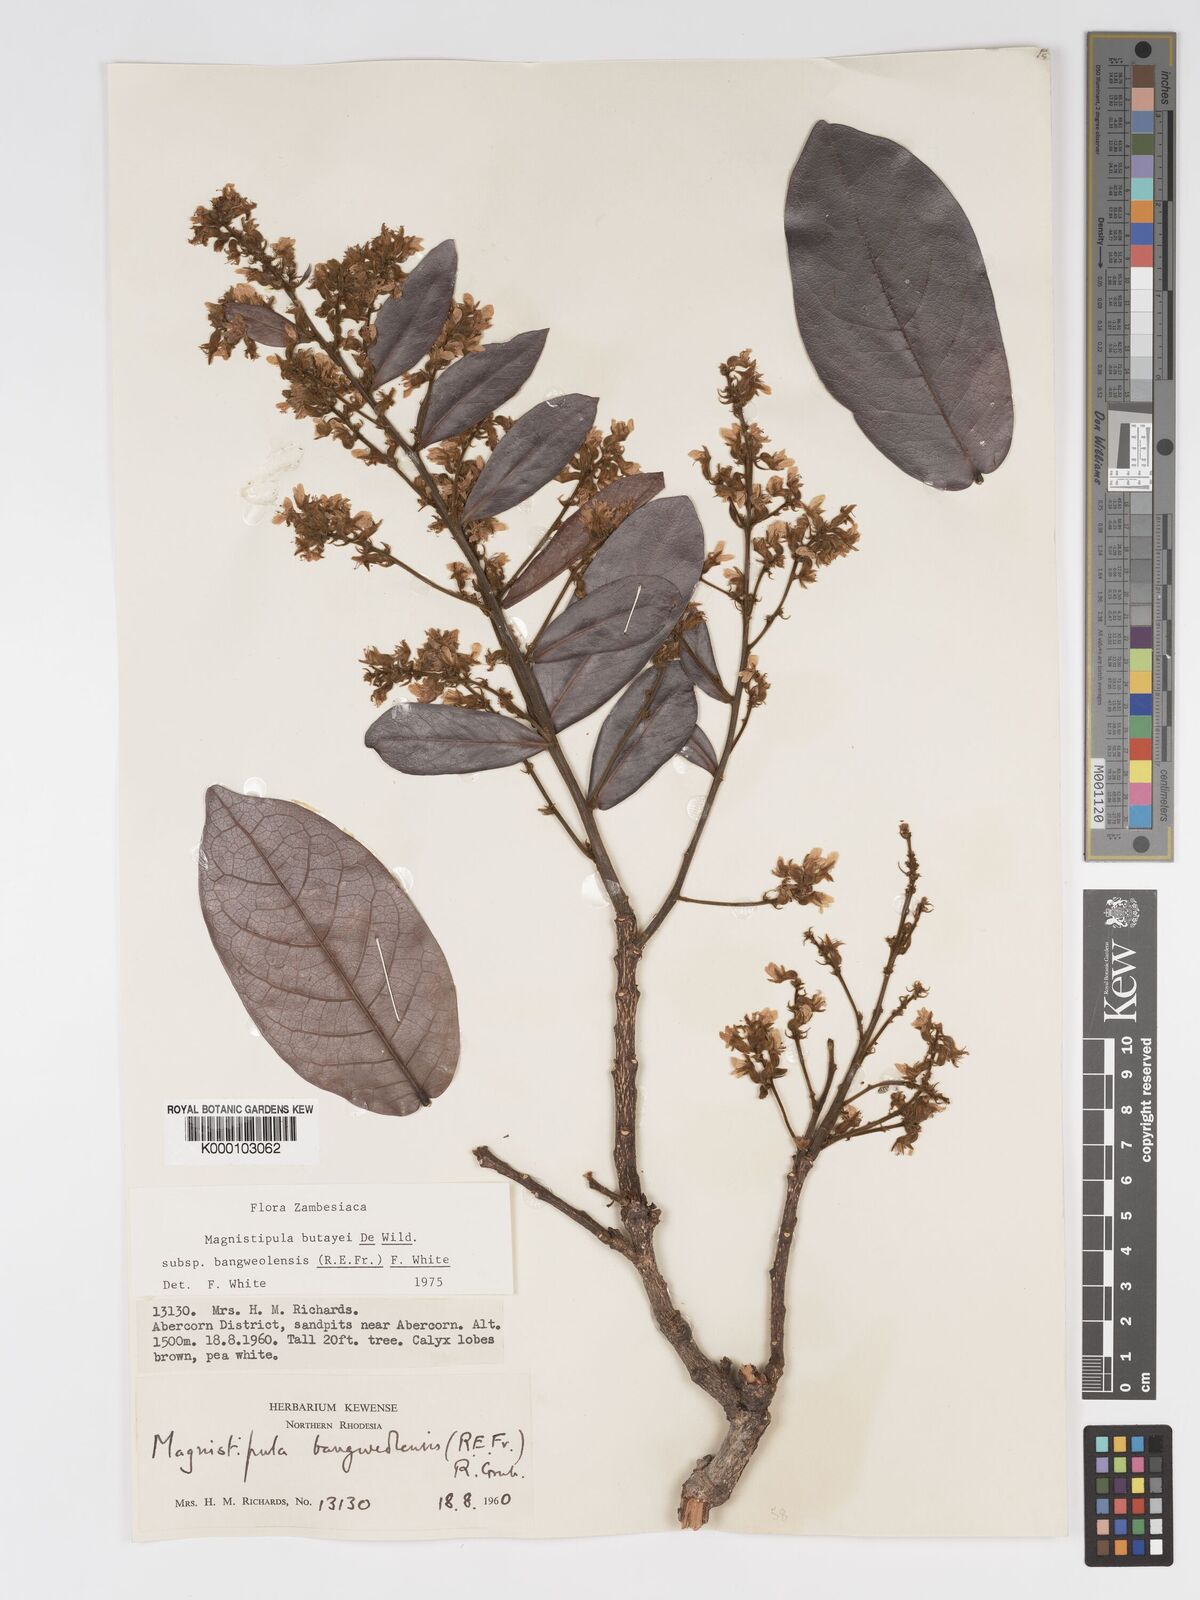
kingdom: Plantae
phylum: Tracheophyta
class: Magnoliopsida
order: Malpighiales
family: Chrysobalanaceae
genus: Magnistipula
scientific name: Magnistipula butayei
